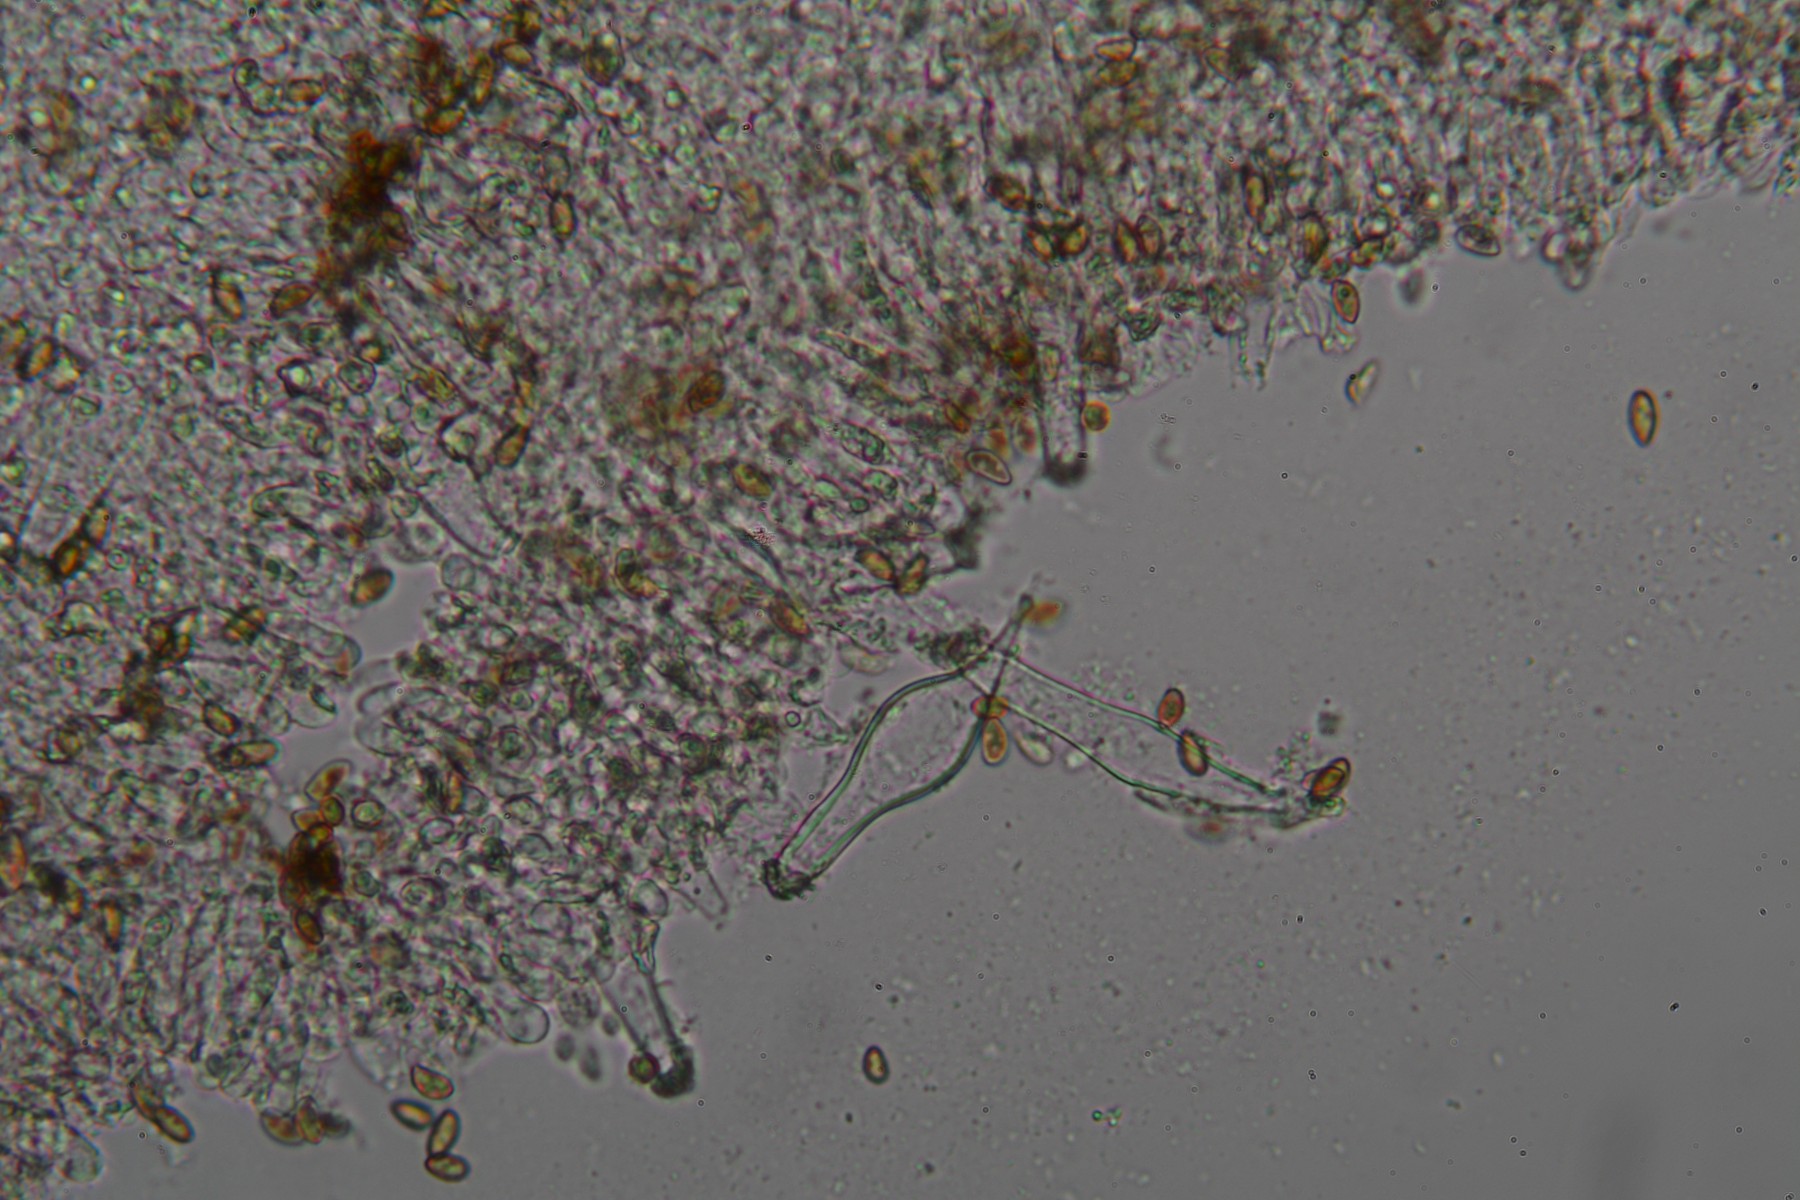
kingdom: Fungi
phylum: Basidiomycota
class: Agaricomycetes
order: Agaricales
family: Inocybaceae
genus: Inocybe
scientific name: Inocybe griseovelata
